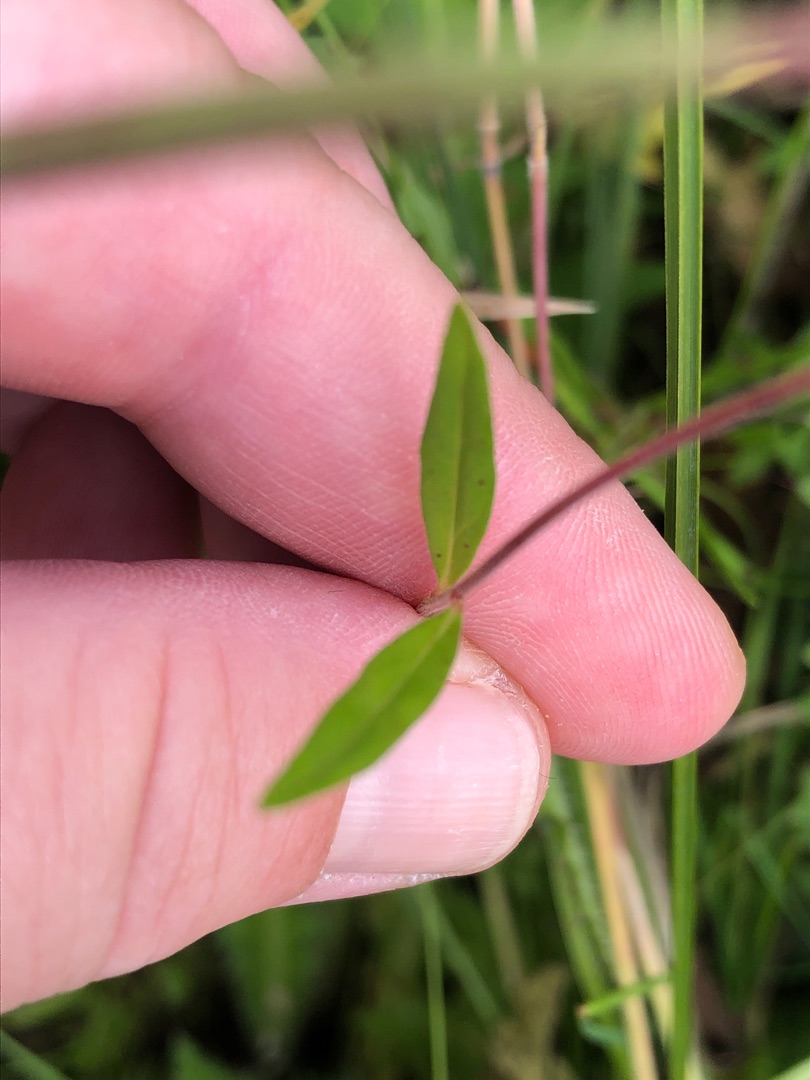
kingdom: Plantae
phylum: Tracheophyta
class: Magnoliopsida
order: Myrtales
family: Onagraceae
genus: Epilobium
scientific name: Epilobium palustre
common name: Kær-dueurt
